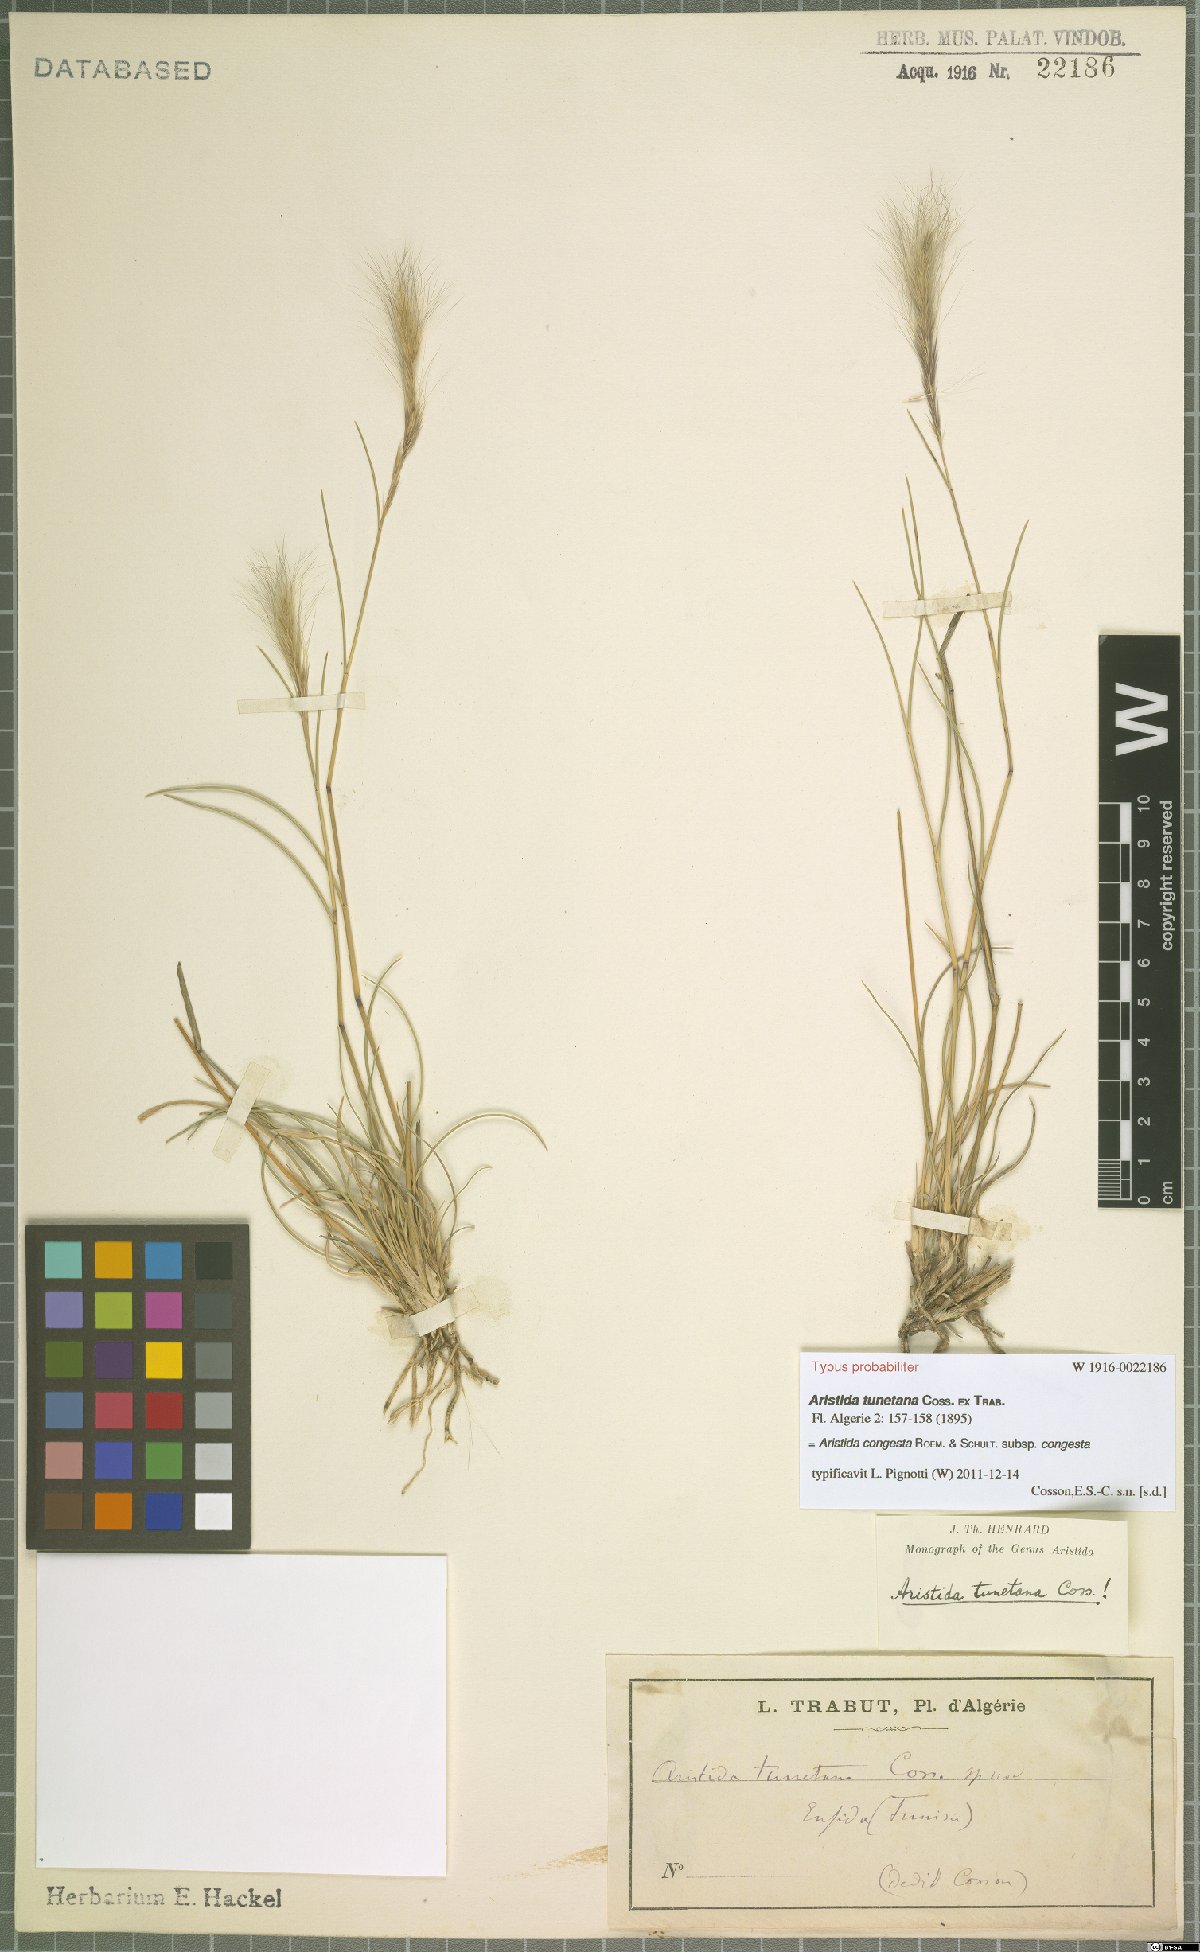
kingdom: Plantae
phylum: Tracheophyta
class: Liliopsida
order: Poales
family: Poaceae
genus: Aristida
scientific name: Aristida congesta
